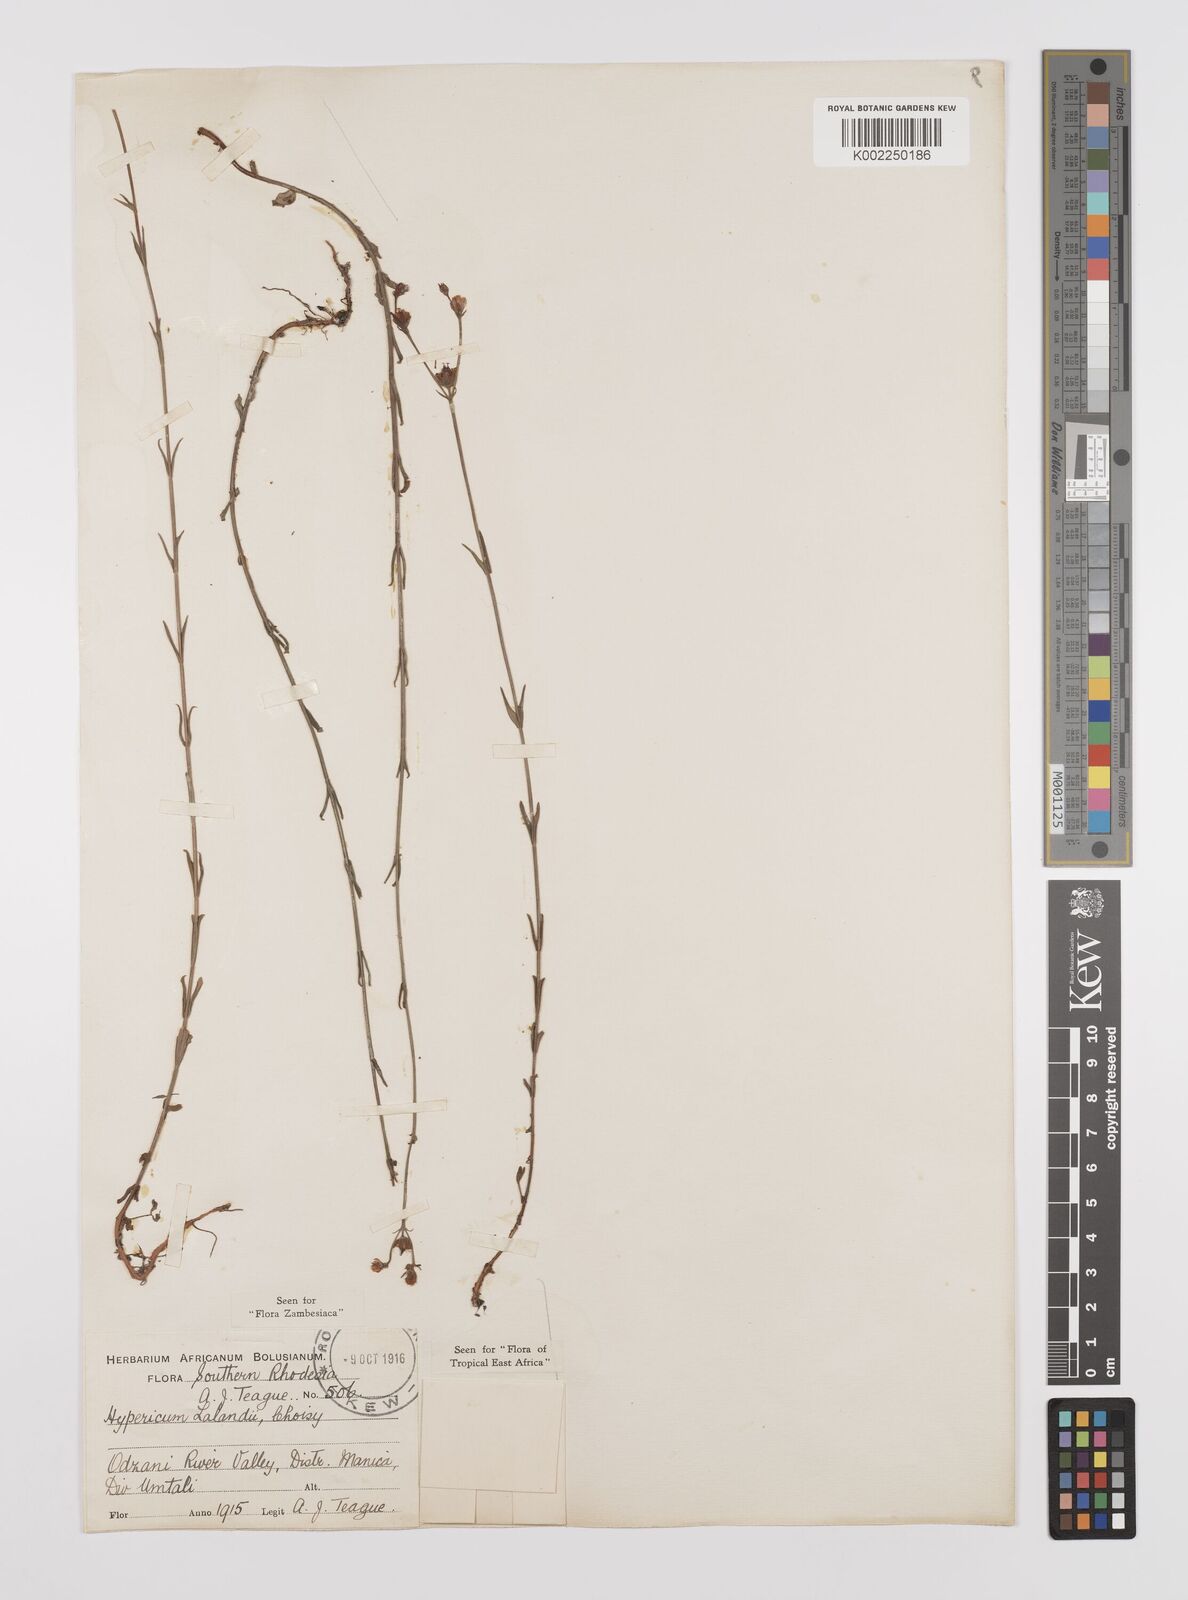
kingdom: Plantae
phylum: Tracheophyta
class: Magnoliopsida
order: Malpighiales
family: Hypericaceae
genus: Hypericum
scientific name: Hypericum lalandii
